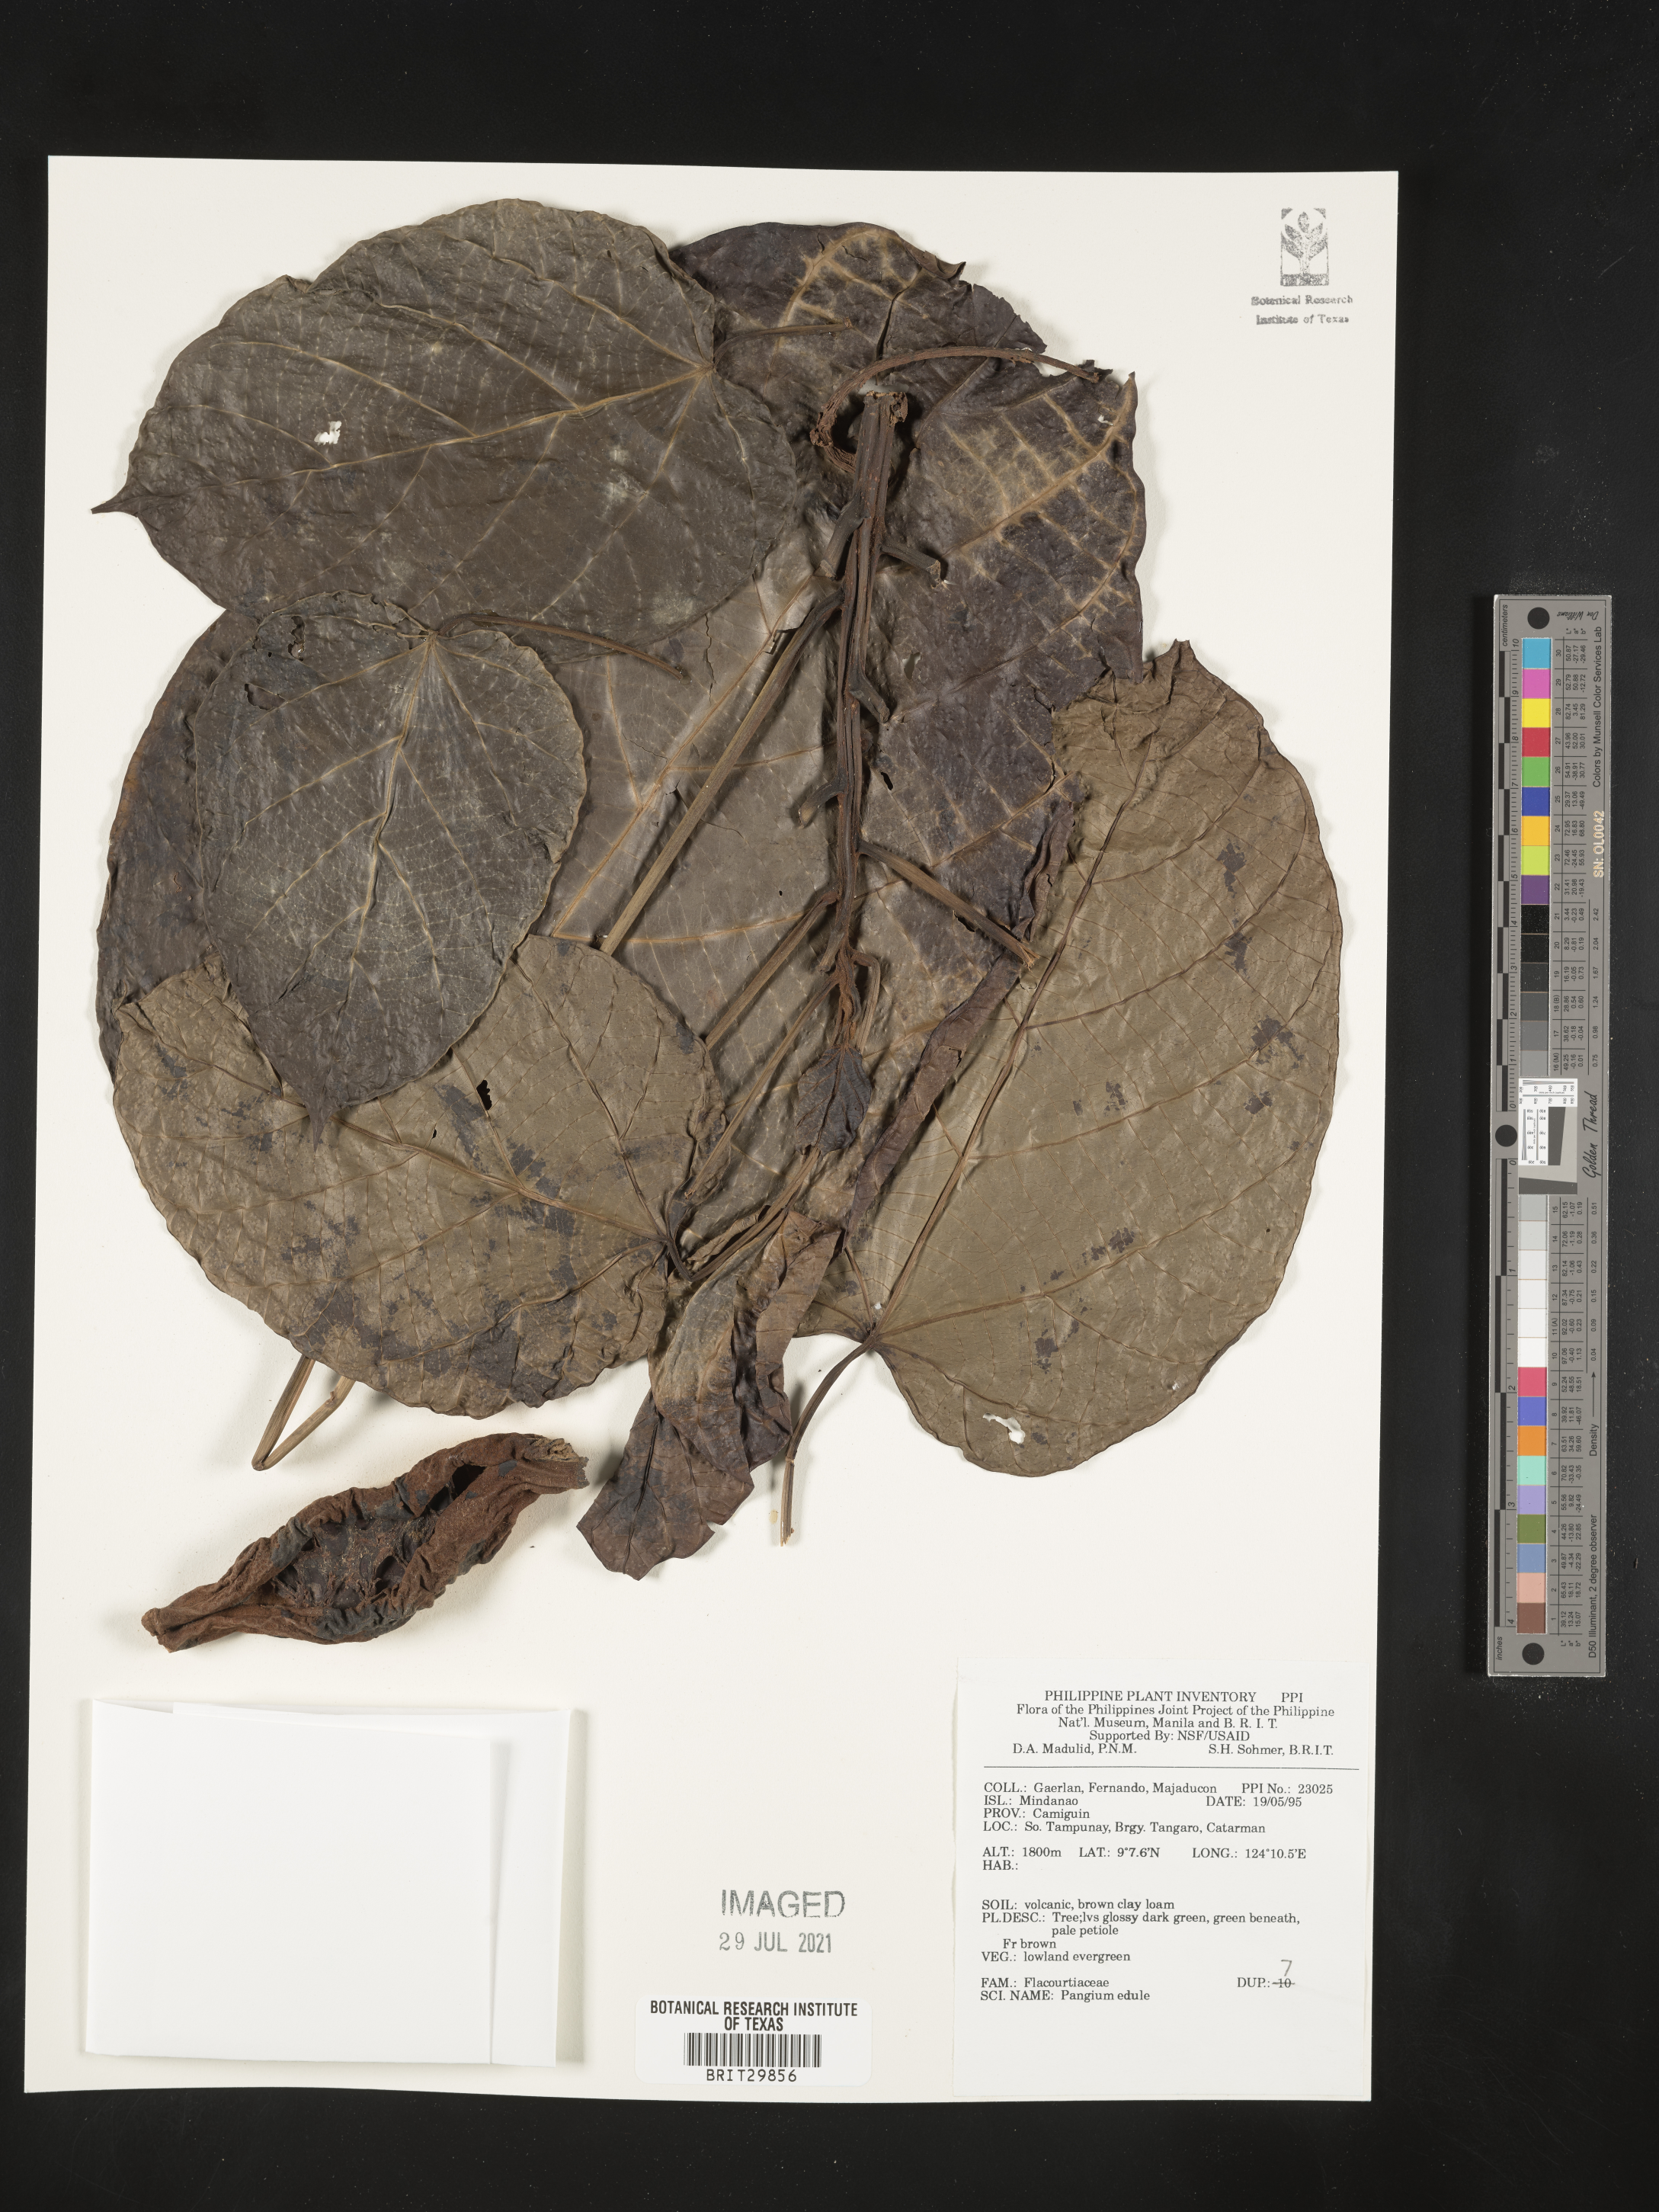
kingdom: Plantae
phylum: Tracheophyta
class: Magnoliopsida
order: Malpighiales
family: Achariaceae
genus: Pangium
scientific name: Pangium edule
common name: Football fruit
